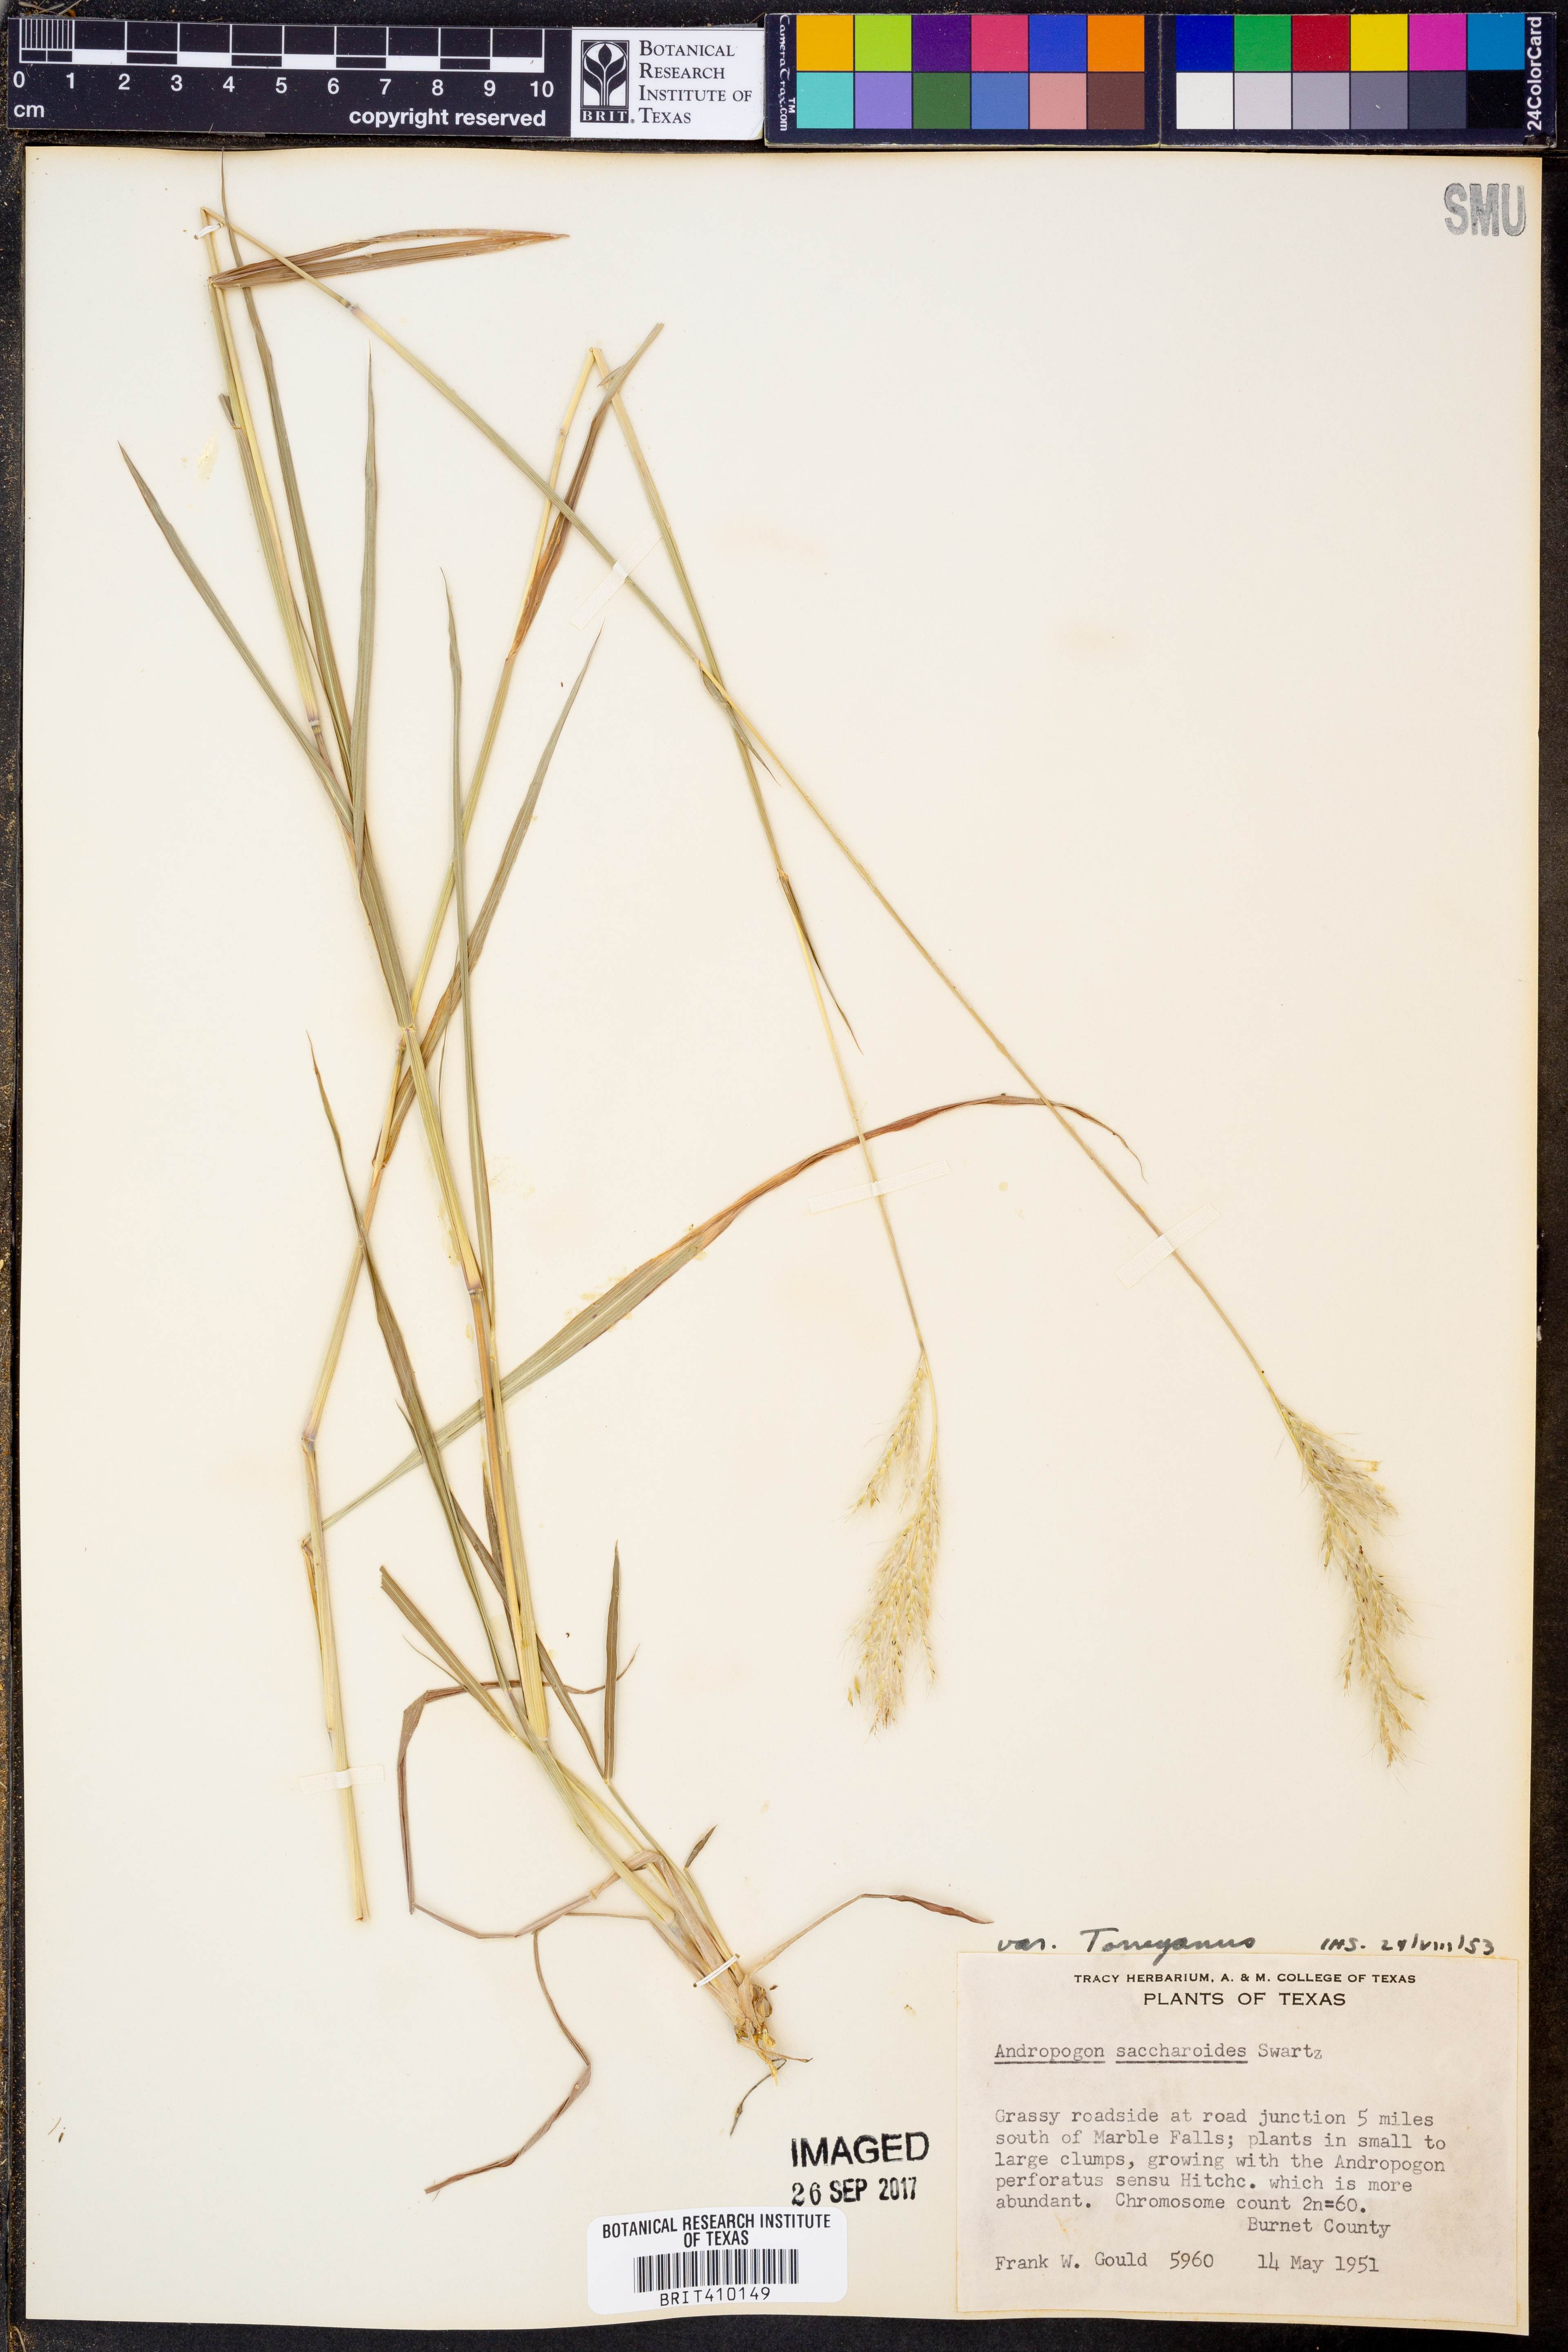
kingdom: Plantae
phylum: Tracheophyta
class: Liliopsida
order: Poales
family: Poaceae
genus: Bothriochloa
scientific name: Bothriochloa torreyana
